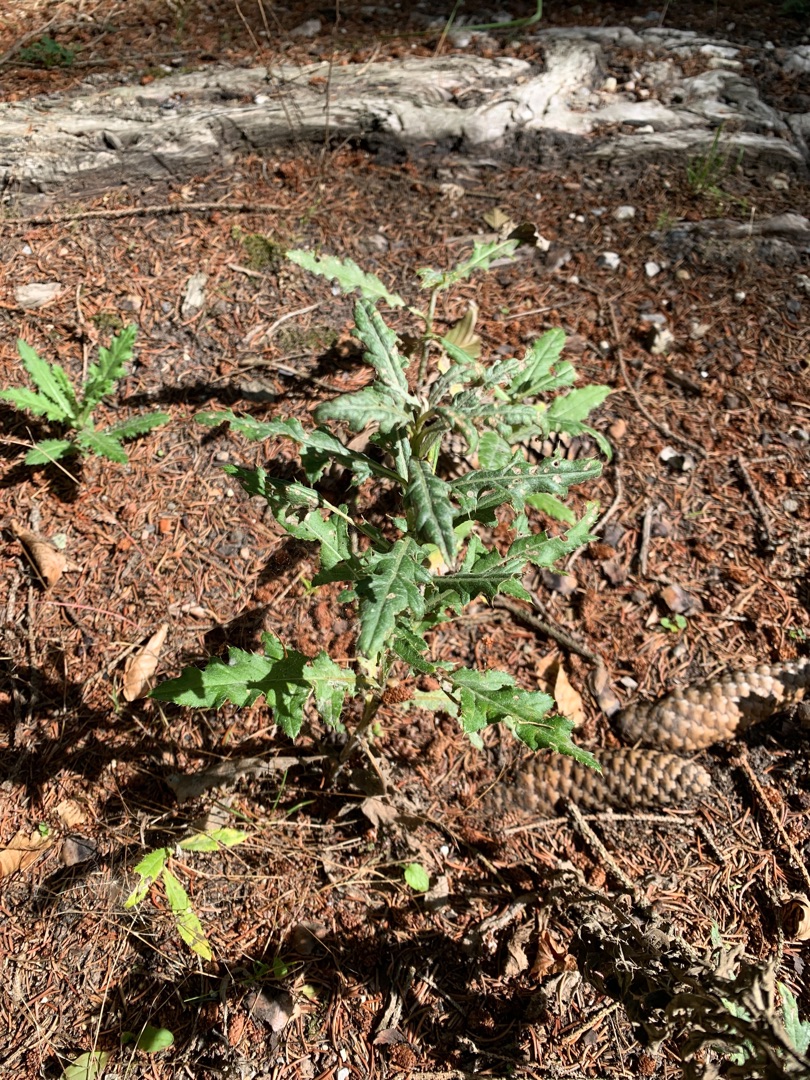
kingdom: Plantae
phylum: Tracheophyta
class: Magnoliopsida
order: Asterales
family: Asteraceae
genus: Cirsium
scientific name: Cirsium arvense
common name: Ager-tidsel
